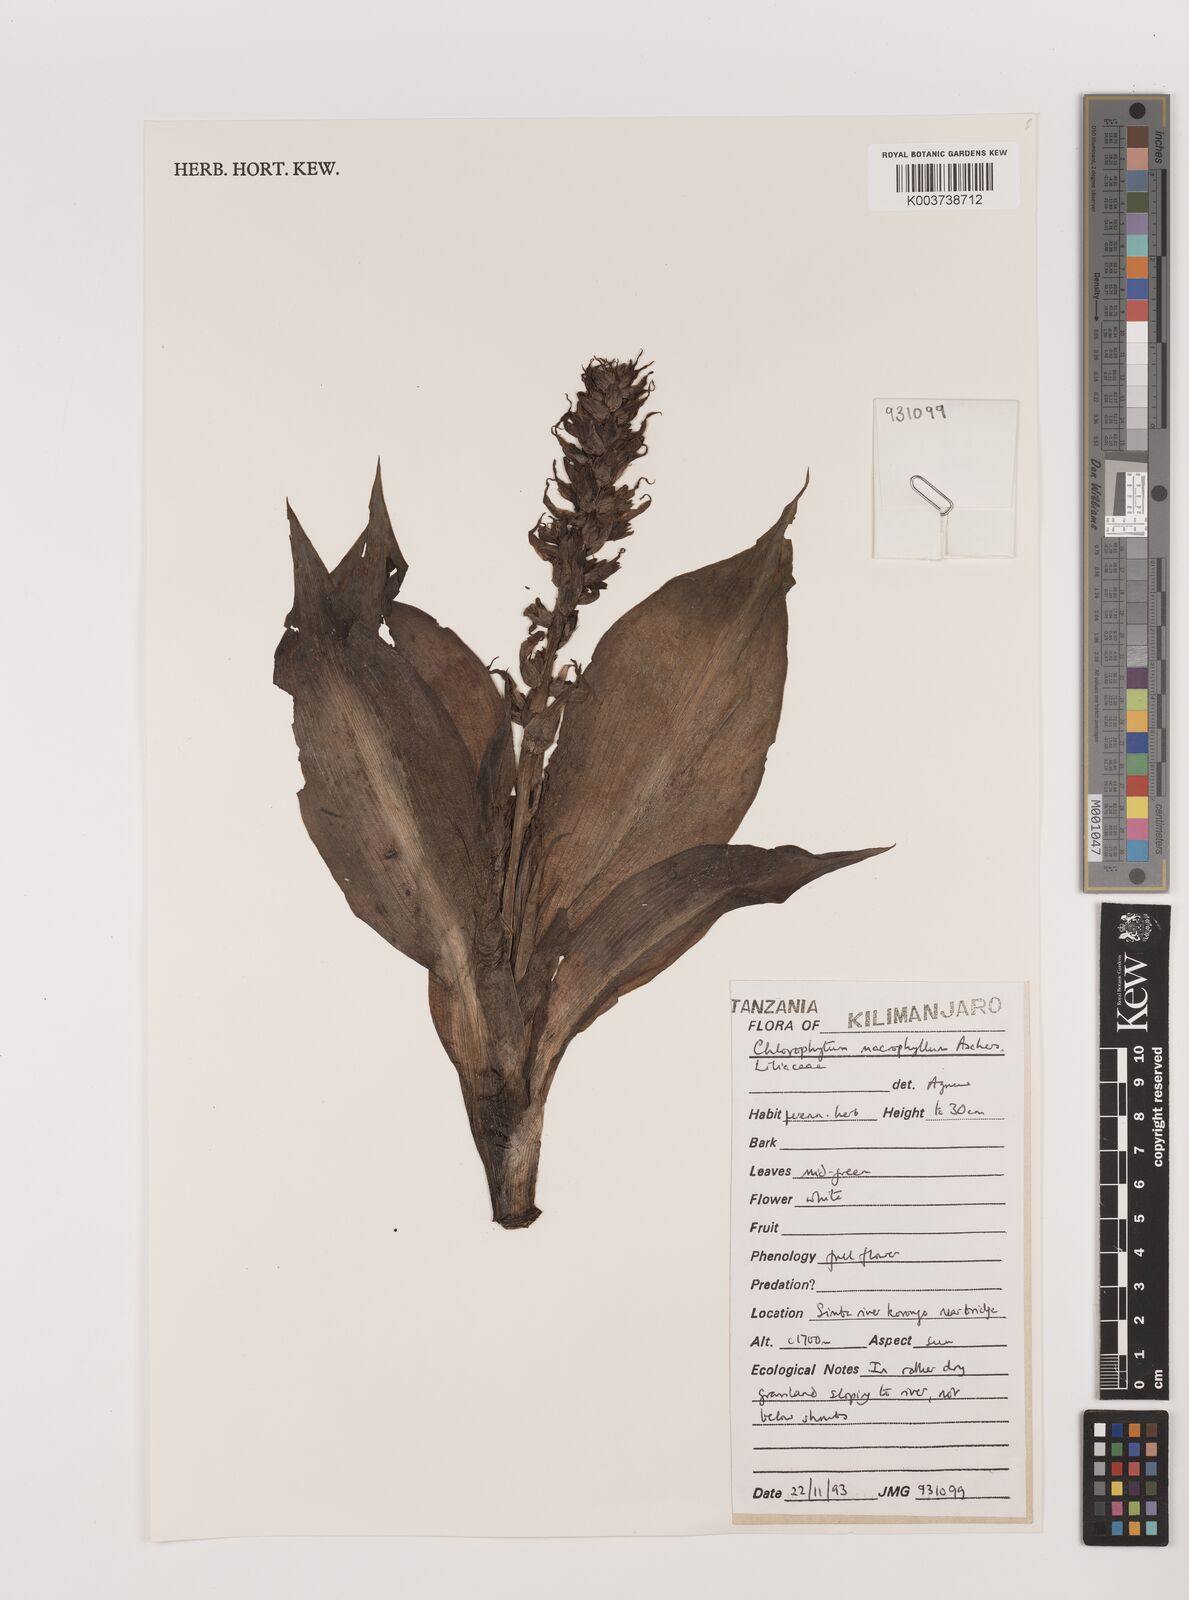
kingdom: Plantae
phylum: Tracheophyta
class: Liliopsida
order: Asparagales
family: Asparagaceae
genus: Chlorophytum
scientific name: Chlorophytum macrophyllum
